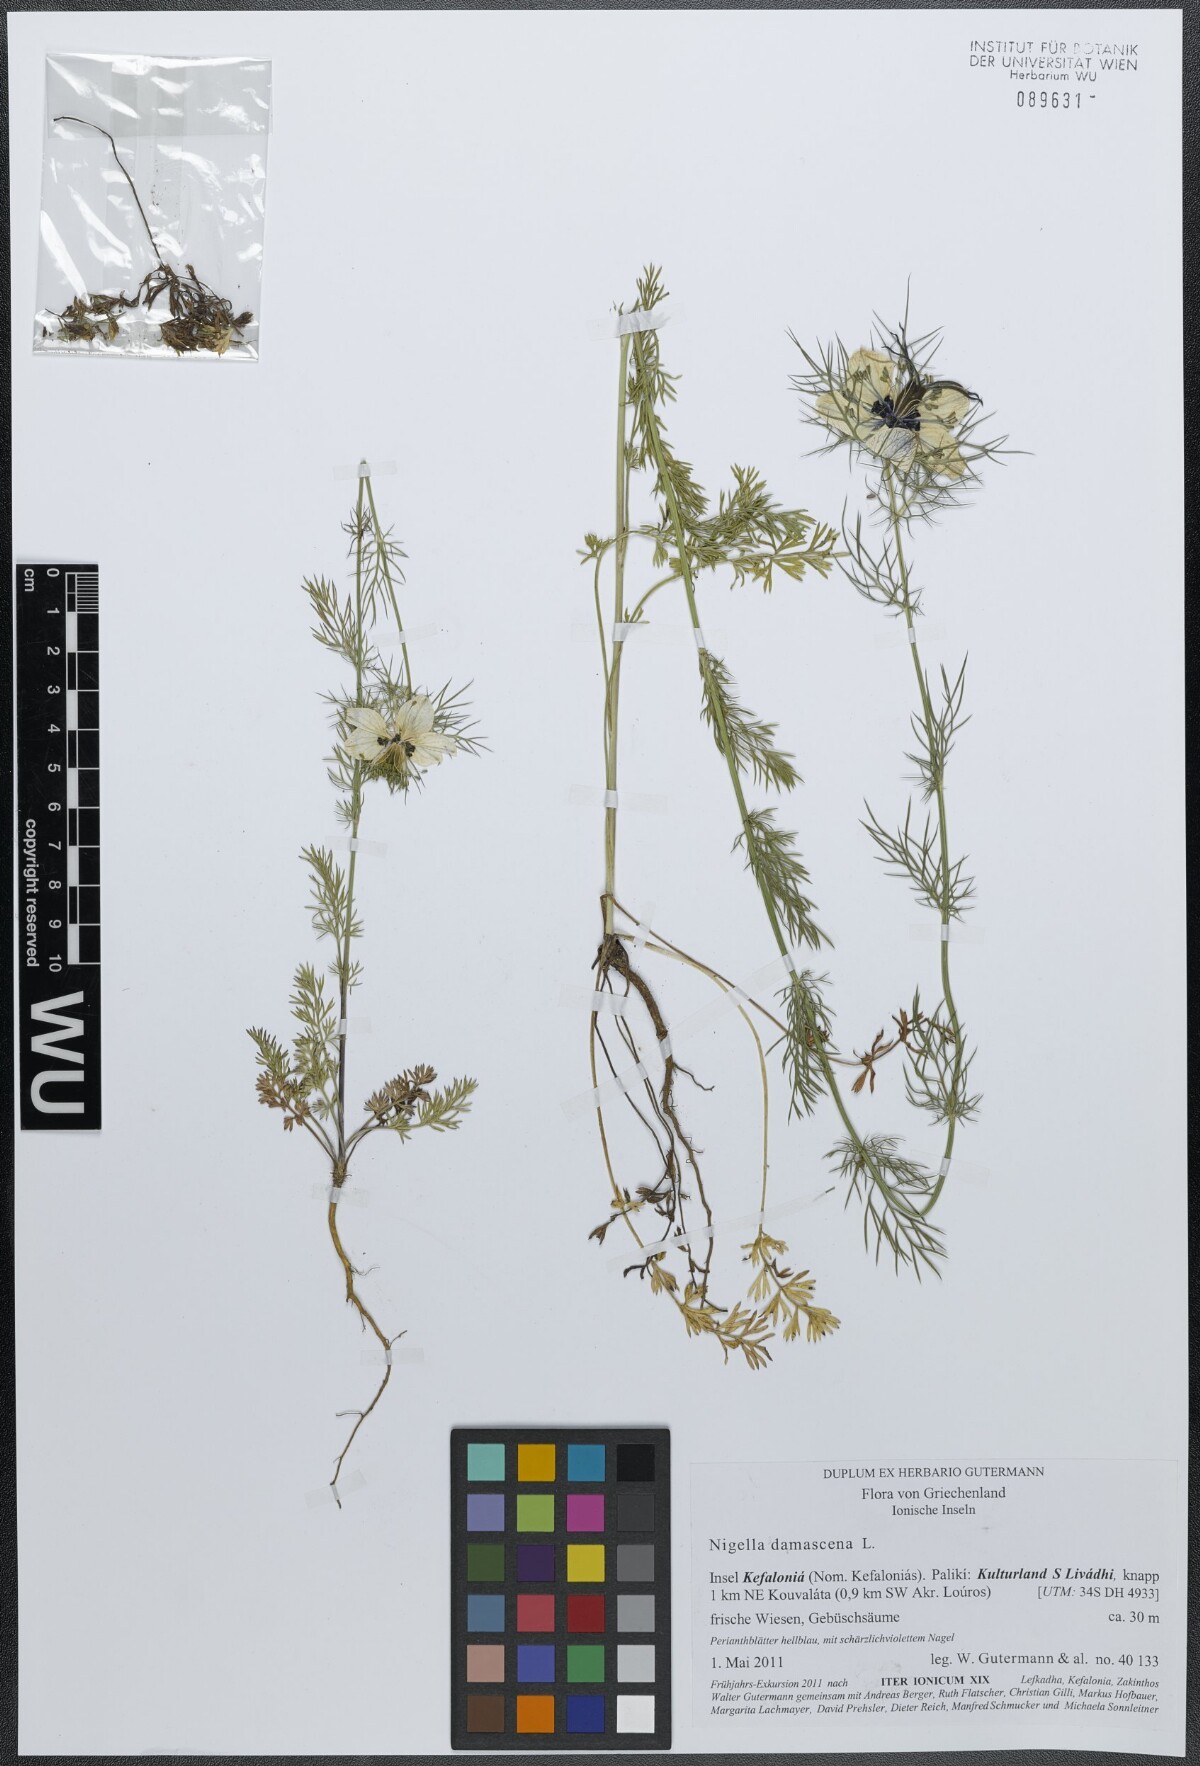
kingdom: Plantae
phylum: Tracheophyta
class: Magnoliopsida
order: Ranunculales
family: Ranunculaceae
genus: Nigella
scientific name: Nigella damascena
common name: Love-in-a-mist
